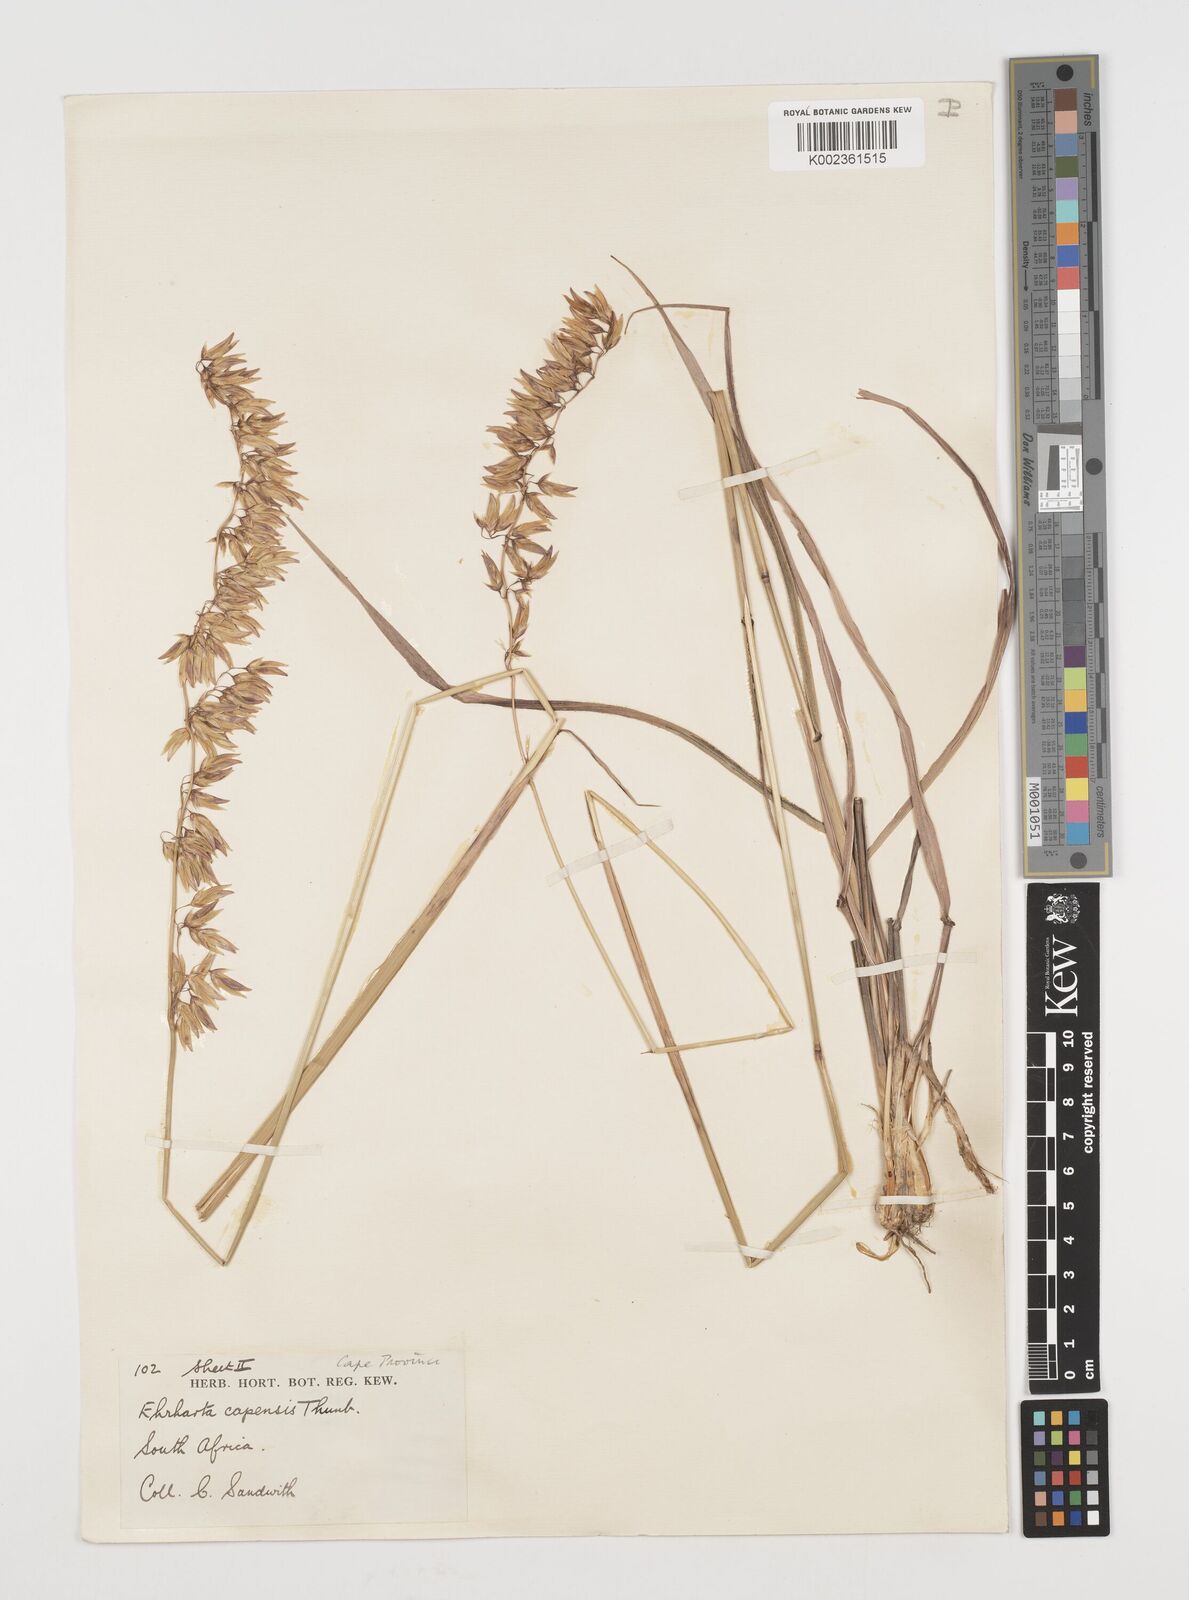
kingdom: Plantae
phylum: Tracheophyta
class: Liliopsida
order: Poales
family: Poaceae
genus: Ehrharta
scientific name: Ehrharta capensis
